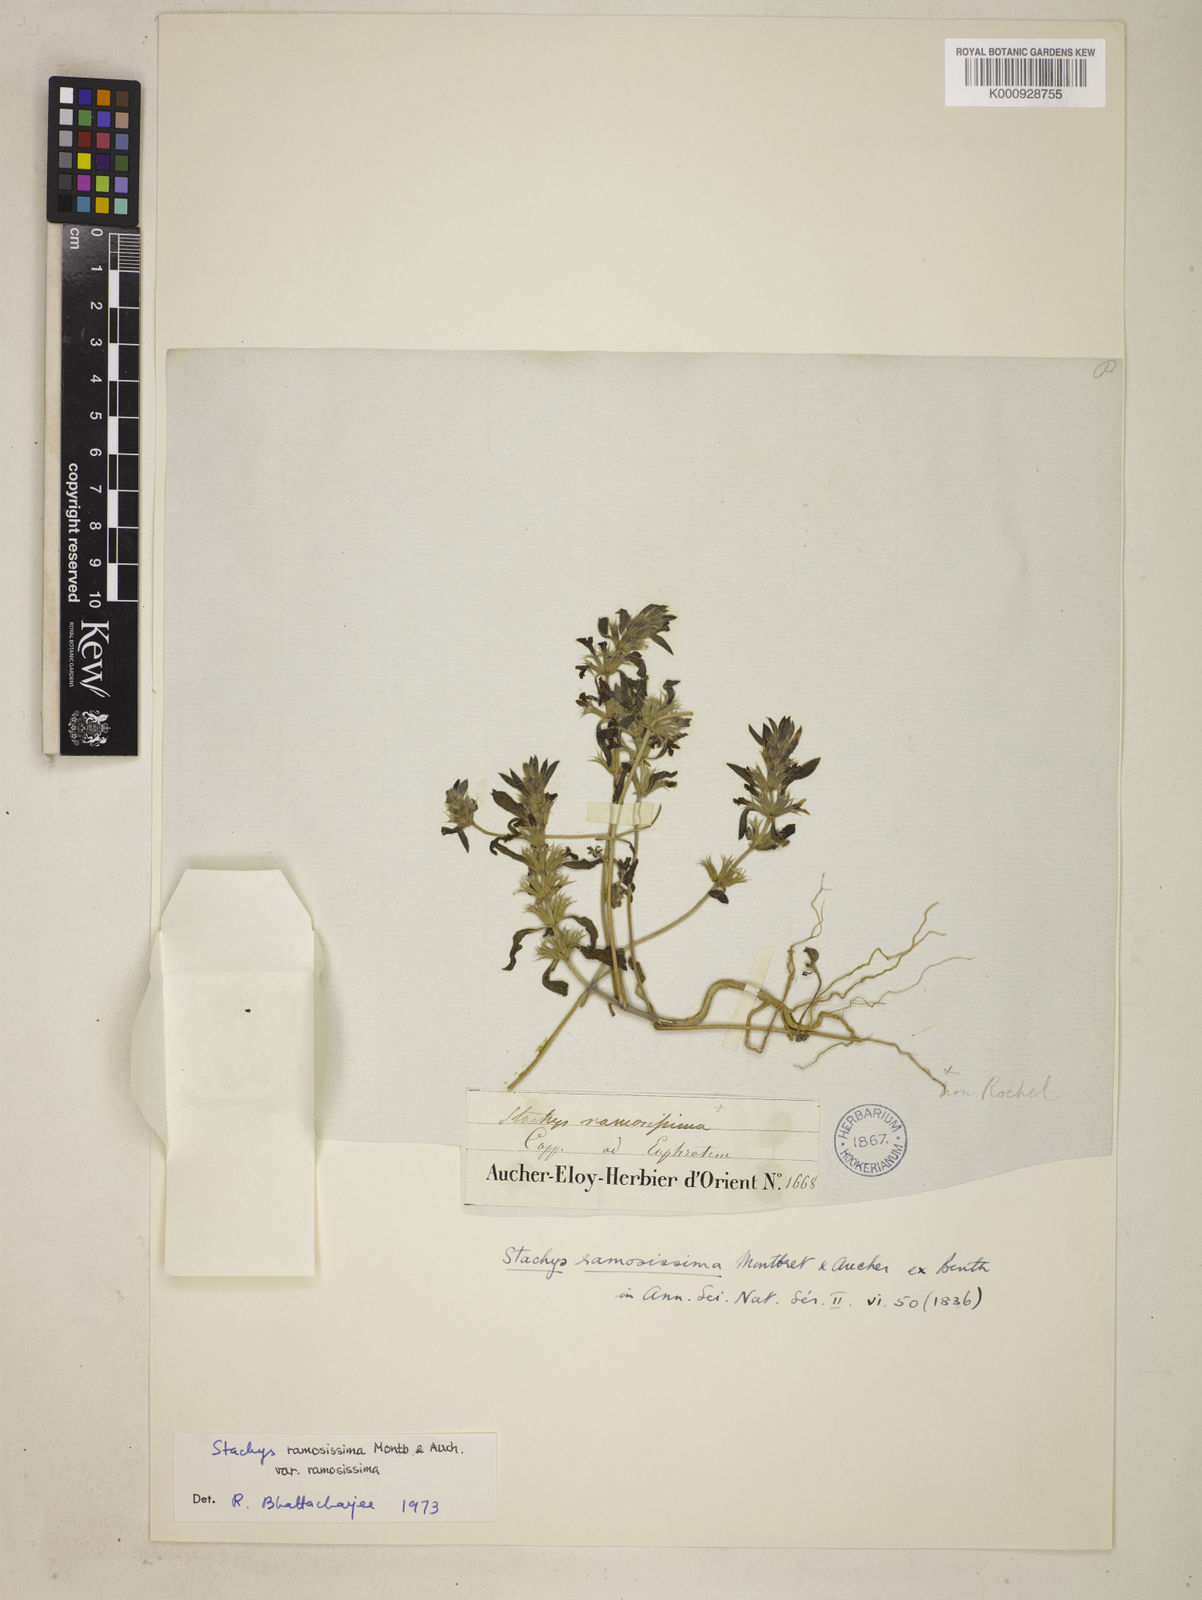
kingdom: Plantae
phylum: Tracheophyta
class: Magnoliopsida
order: Lamiales
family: Lamiaceae
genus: Stachys
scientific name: Stachys ramosissima
